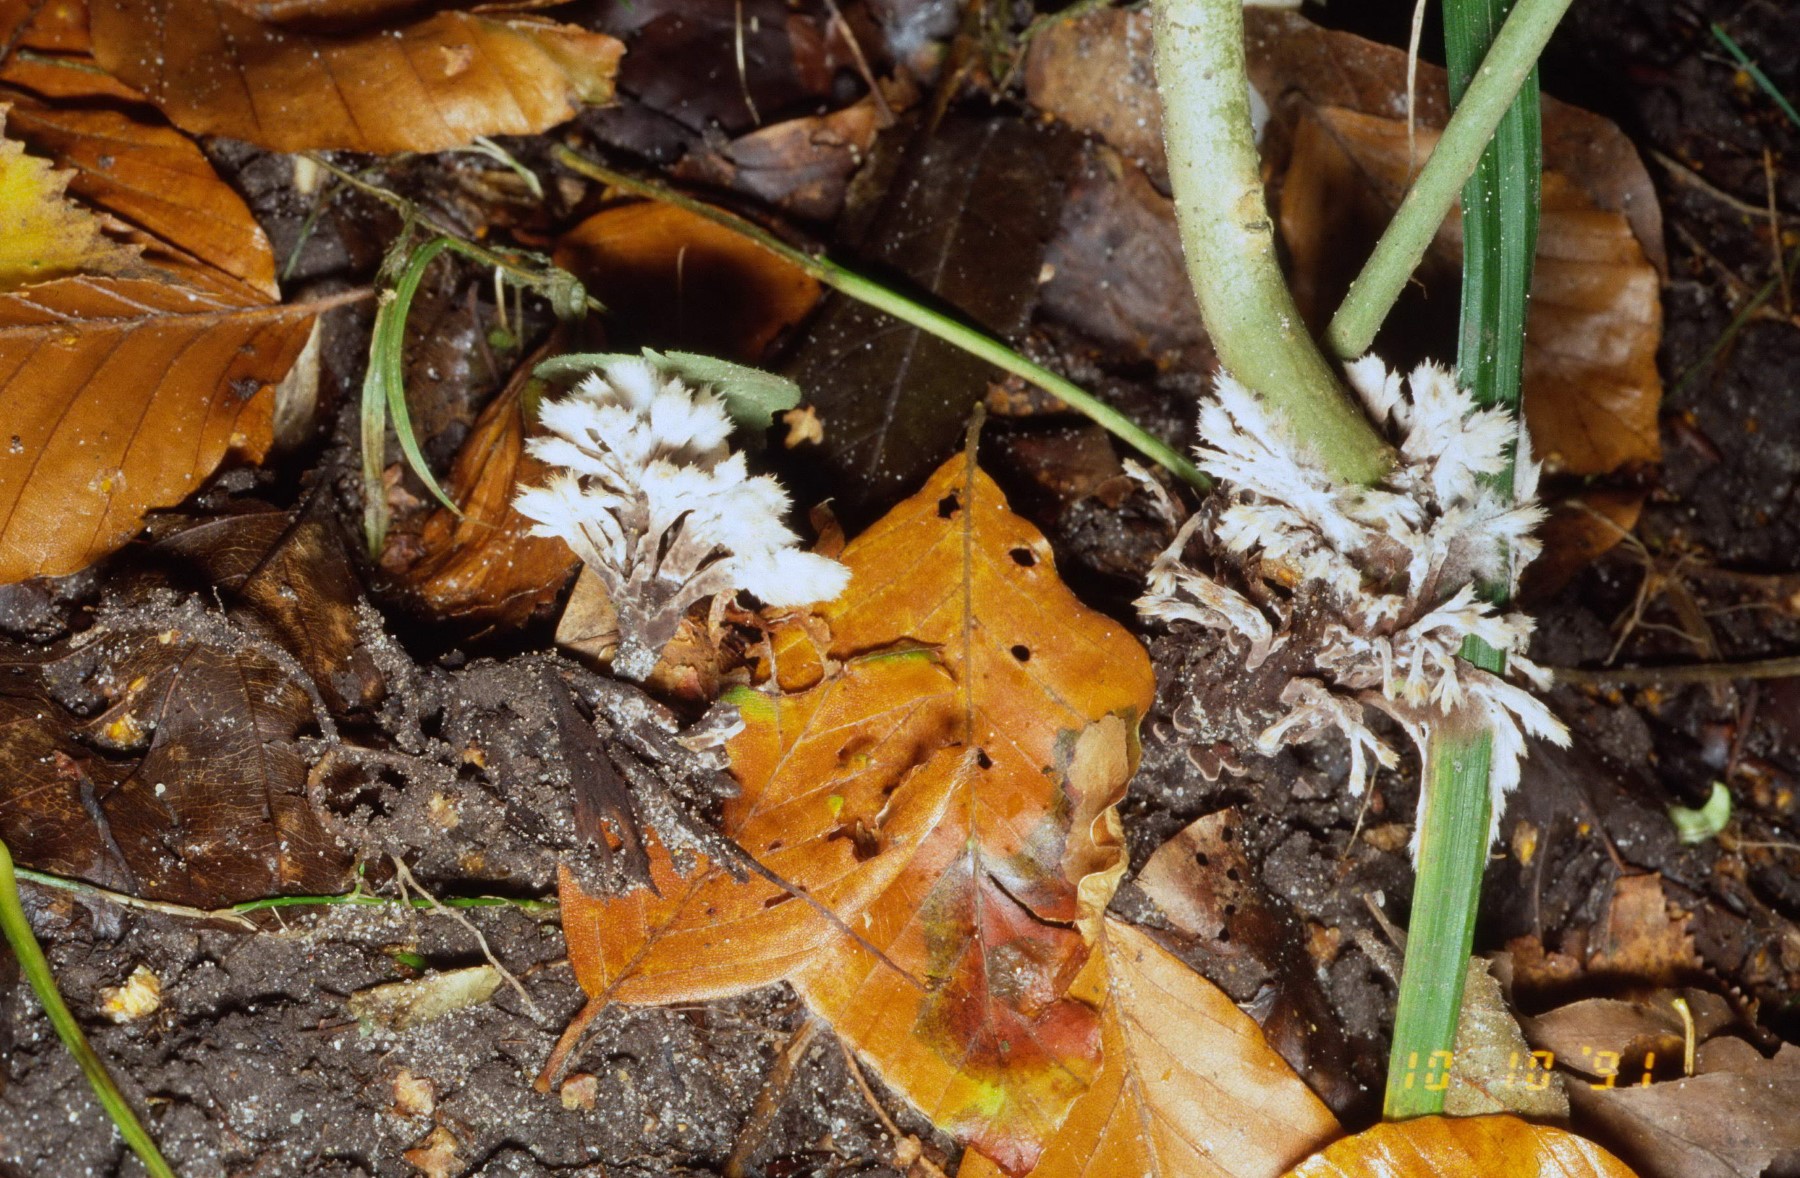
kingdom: Fungi
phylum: Basidiomycota
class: Agaricomycetes
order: Thelephorales
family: Thelephoraceae
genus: Thelephora
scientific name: Thelephora penicillata
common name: fladtrådt frynsesvamp
